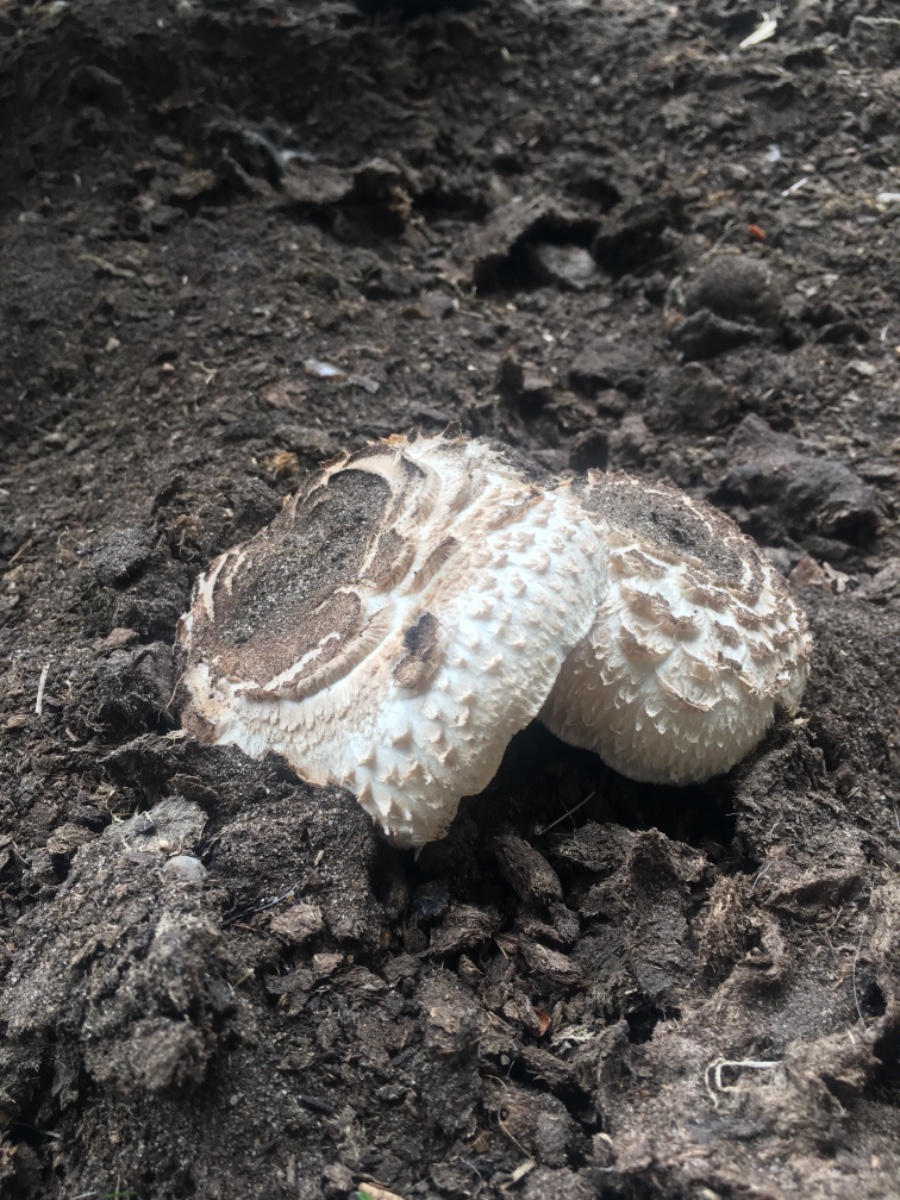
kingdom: Fungi
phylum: Basidiomycota
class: Agaricomycetes
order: Agaricales
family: Agaricaceae
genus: Chlorophyllum
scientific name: Chlorophyllum brunneum
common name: giftig rabarberhat
